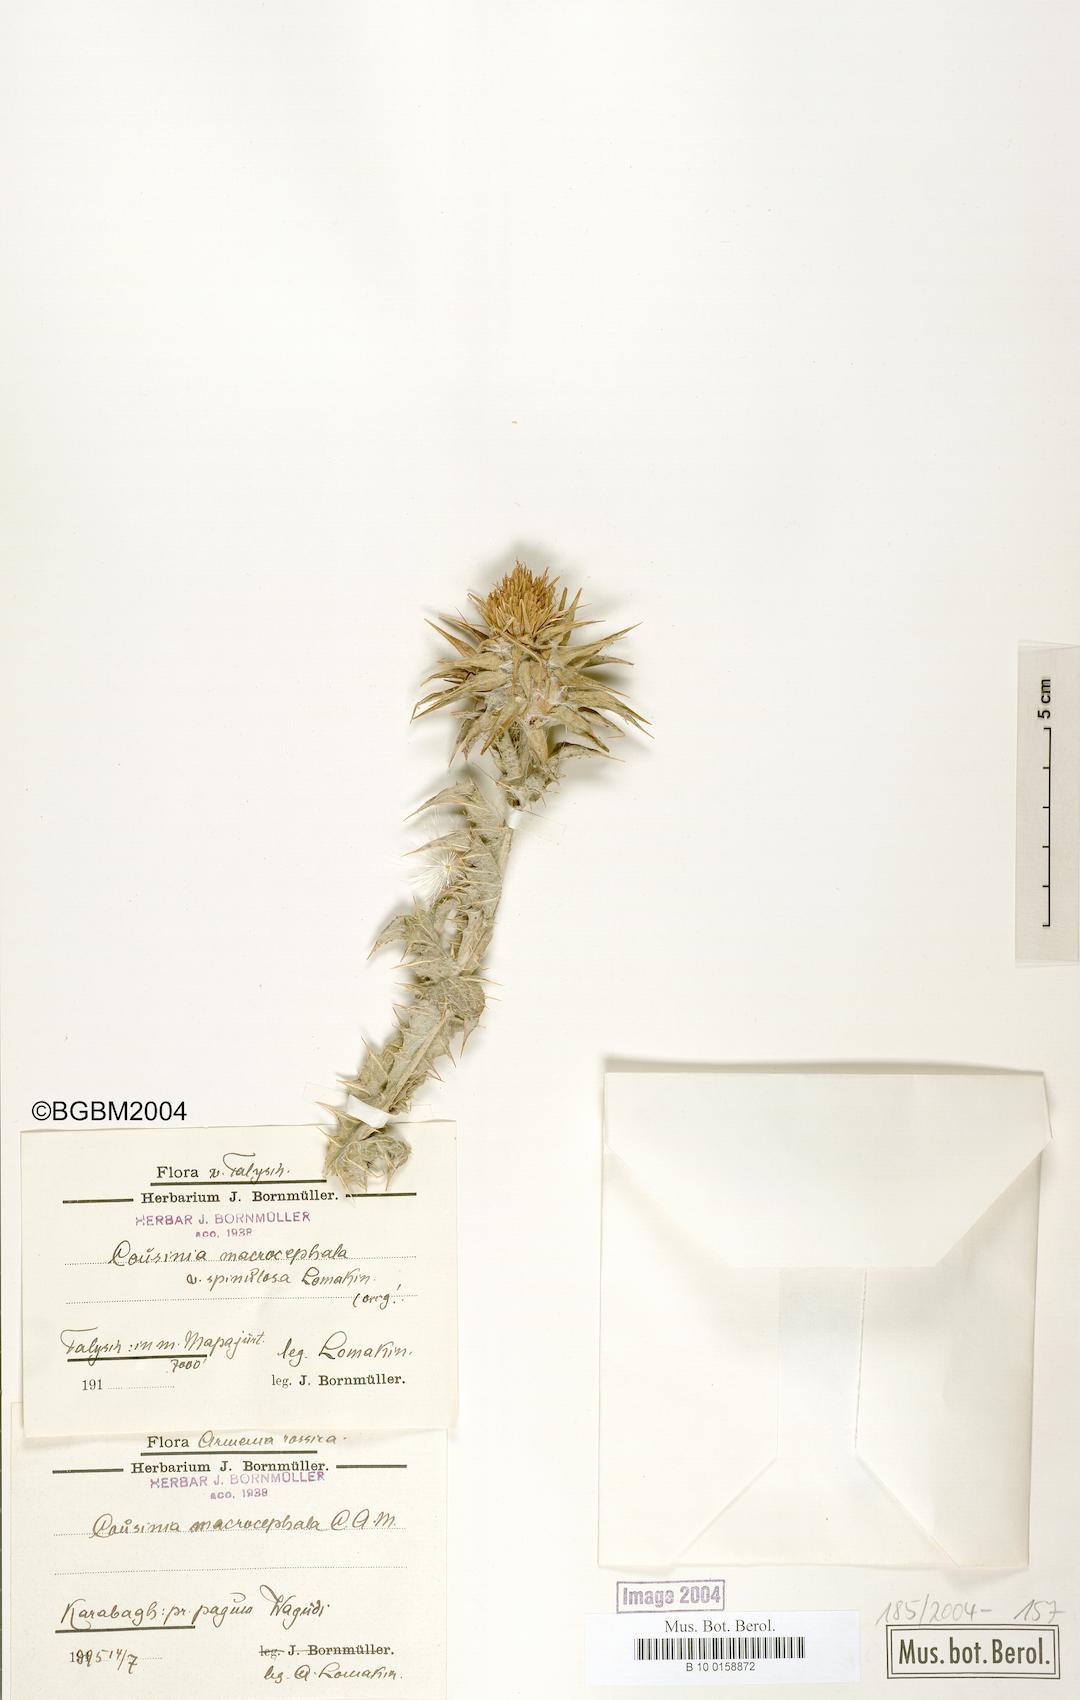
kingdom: Plantae
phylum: Tracheophyta
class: Magnoliopsida
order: Asterales
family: Asteraceae
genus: Cousinia
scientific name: Cousinia macrocephala
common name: Macrocephalous cousinia
